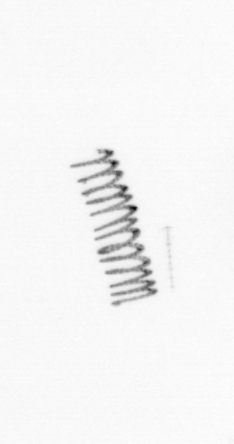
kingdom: Chromista
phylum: Ochrophyta
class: Bacillariophyceae
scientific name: Bacillariophyceae
